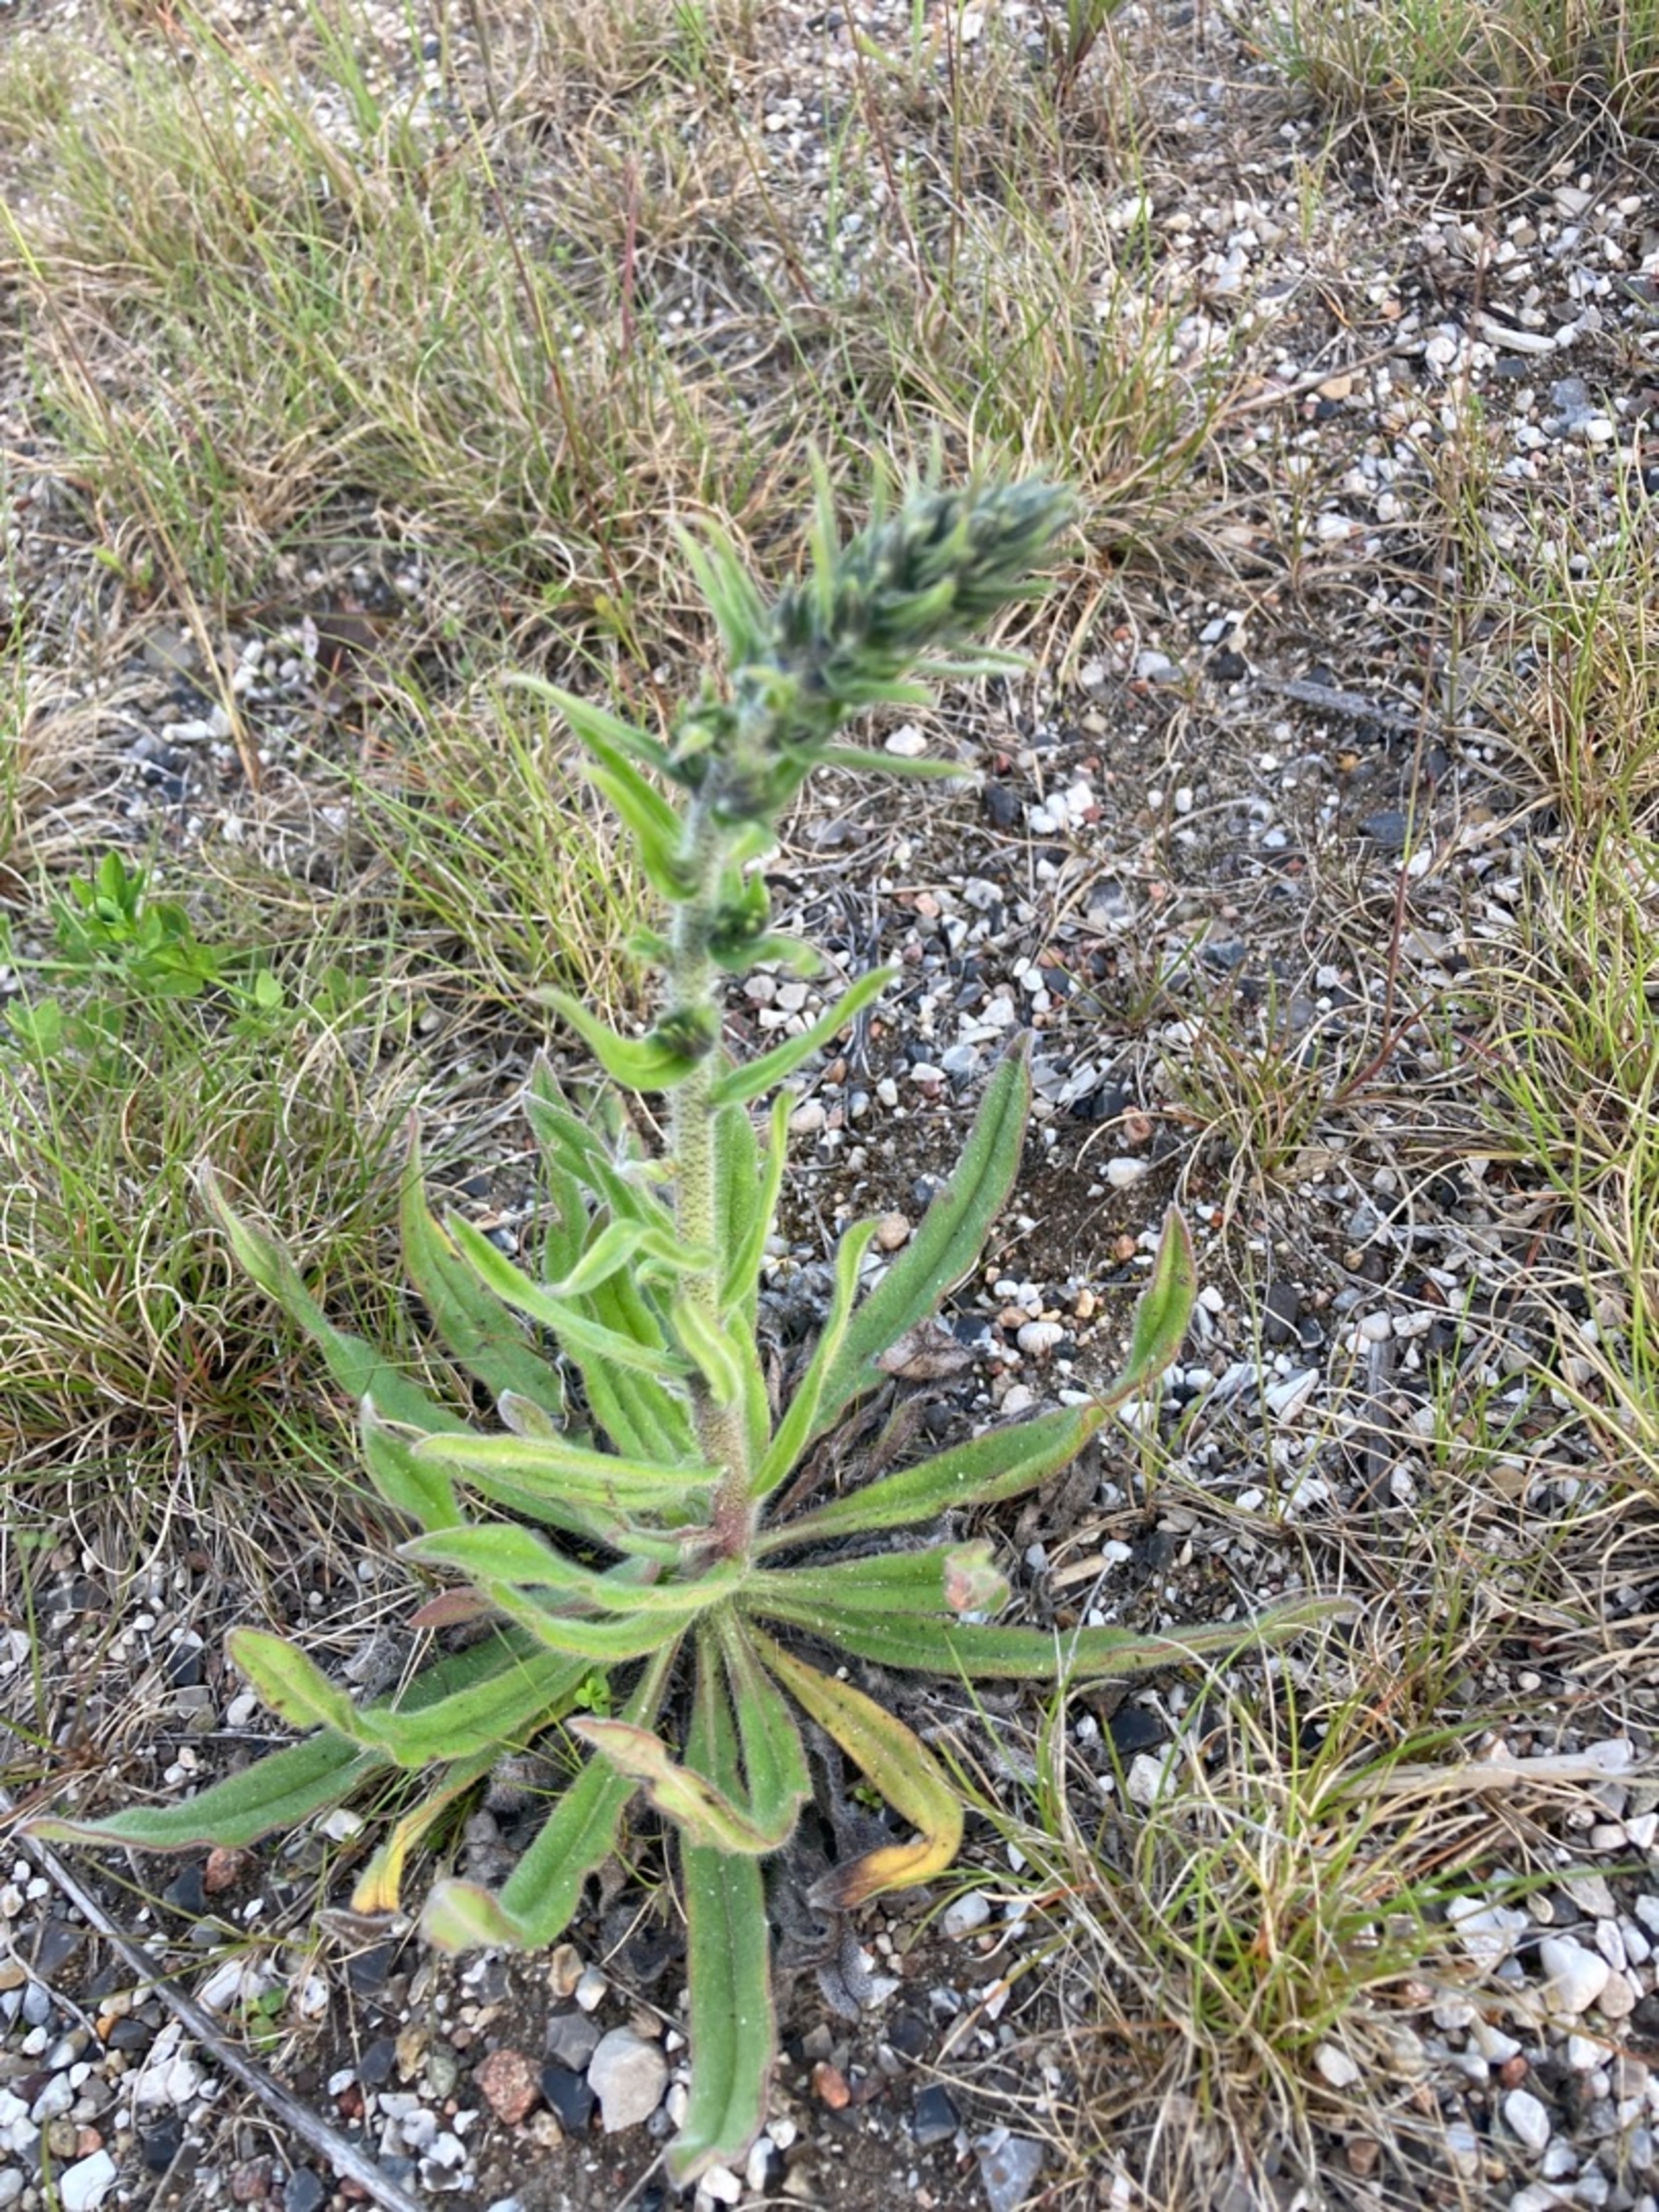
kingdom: Plantae
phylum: Tracheophyta
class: Magnoliopsida
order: Boraginales
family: Boraginaceae
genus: Echium
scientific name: Echium vulgare
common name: Slangehoved
